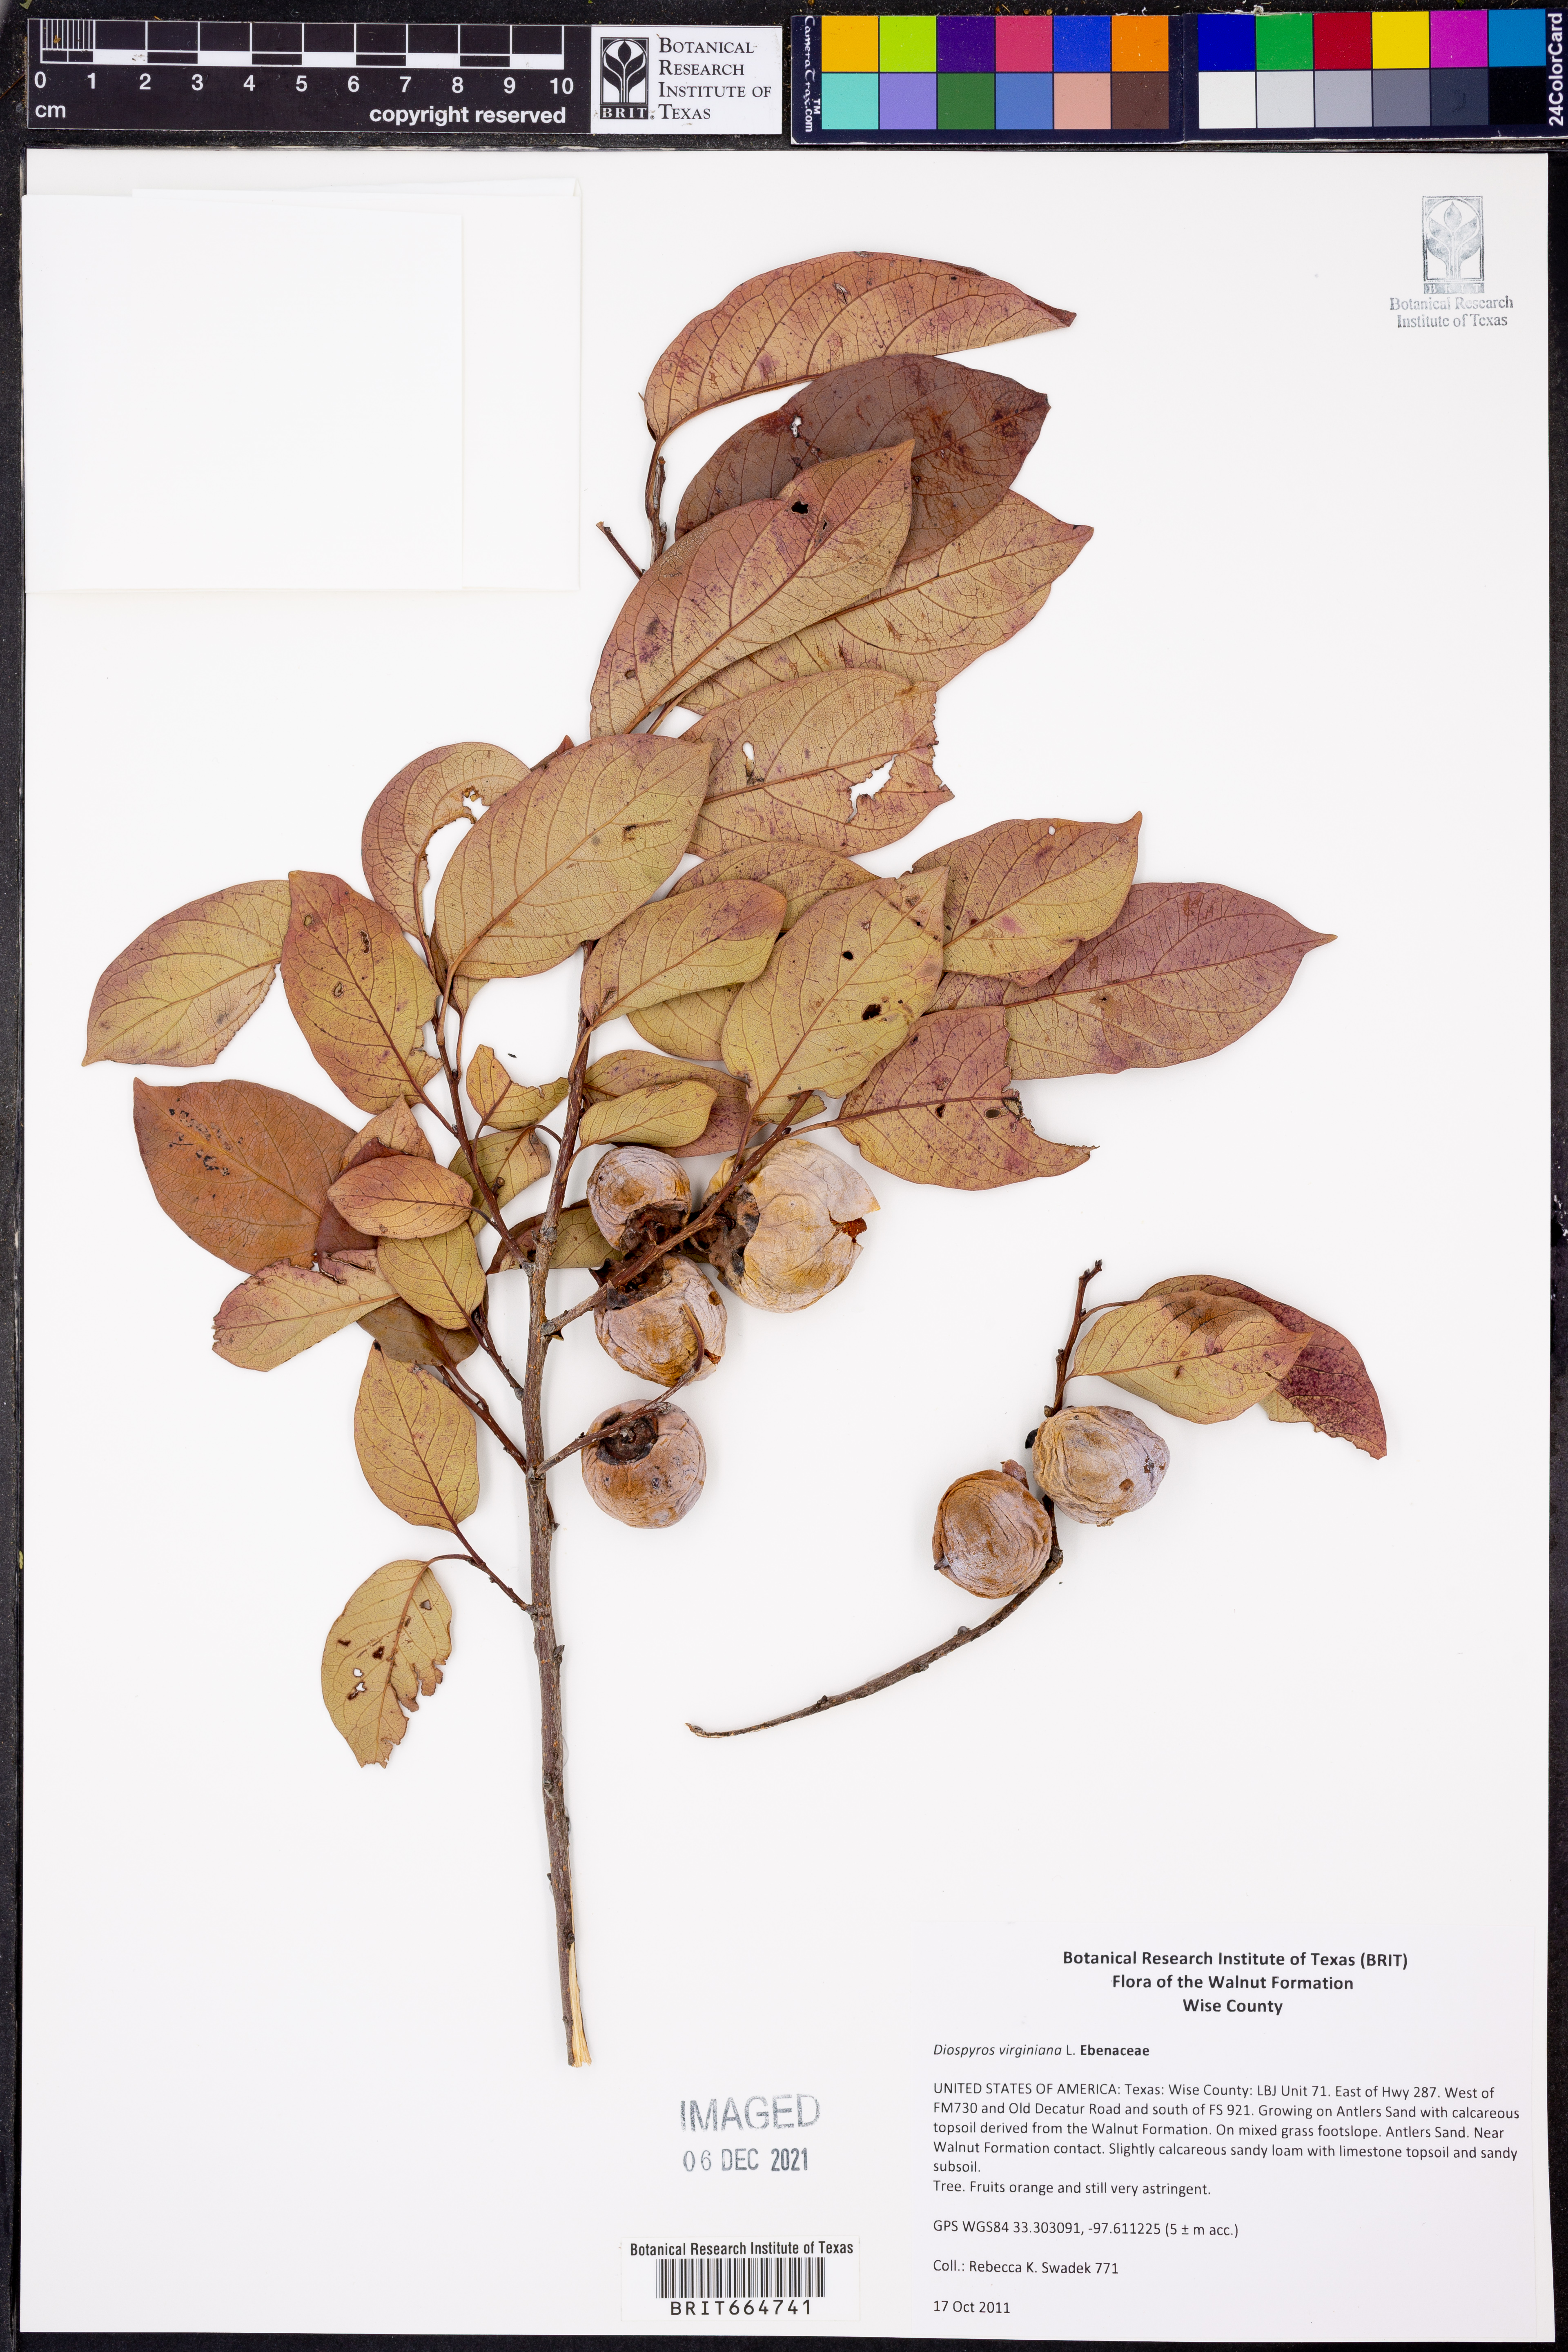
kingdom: Plantae
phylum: Tracheophyta
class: Magnoliopsida
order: Ericales
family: Ebenaceae
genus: Diospyros
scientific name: Diospyros virginiana
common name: Persimmon
